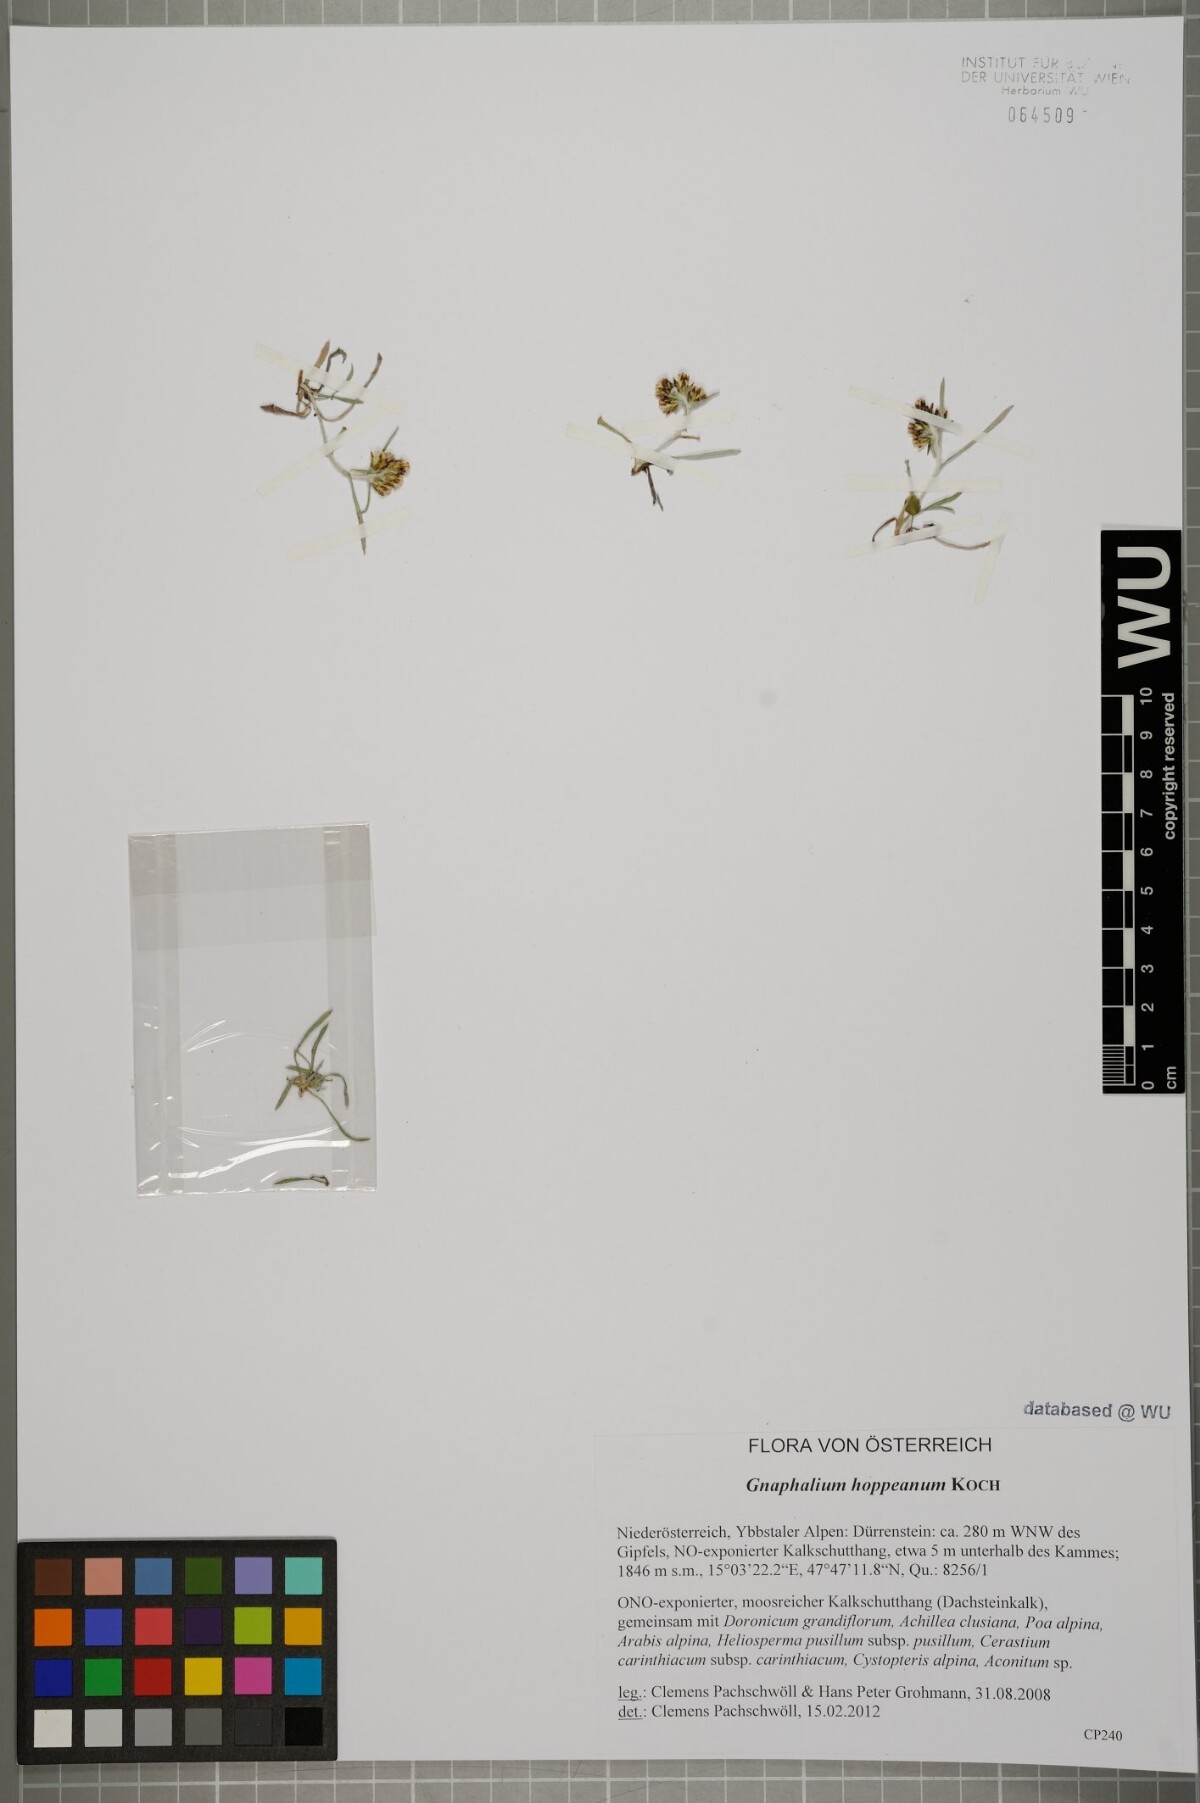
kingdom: Plantae
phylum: Tracheophyta
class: Magnoliopsida
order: Asterales
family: Asteraceae
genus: Omalotheca
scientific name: Omalotheca hoppeana
